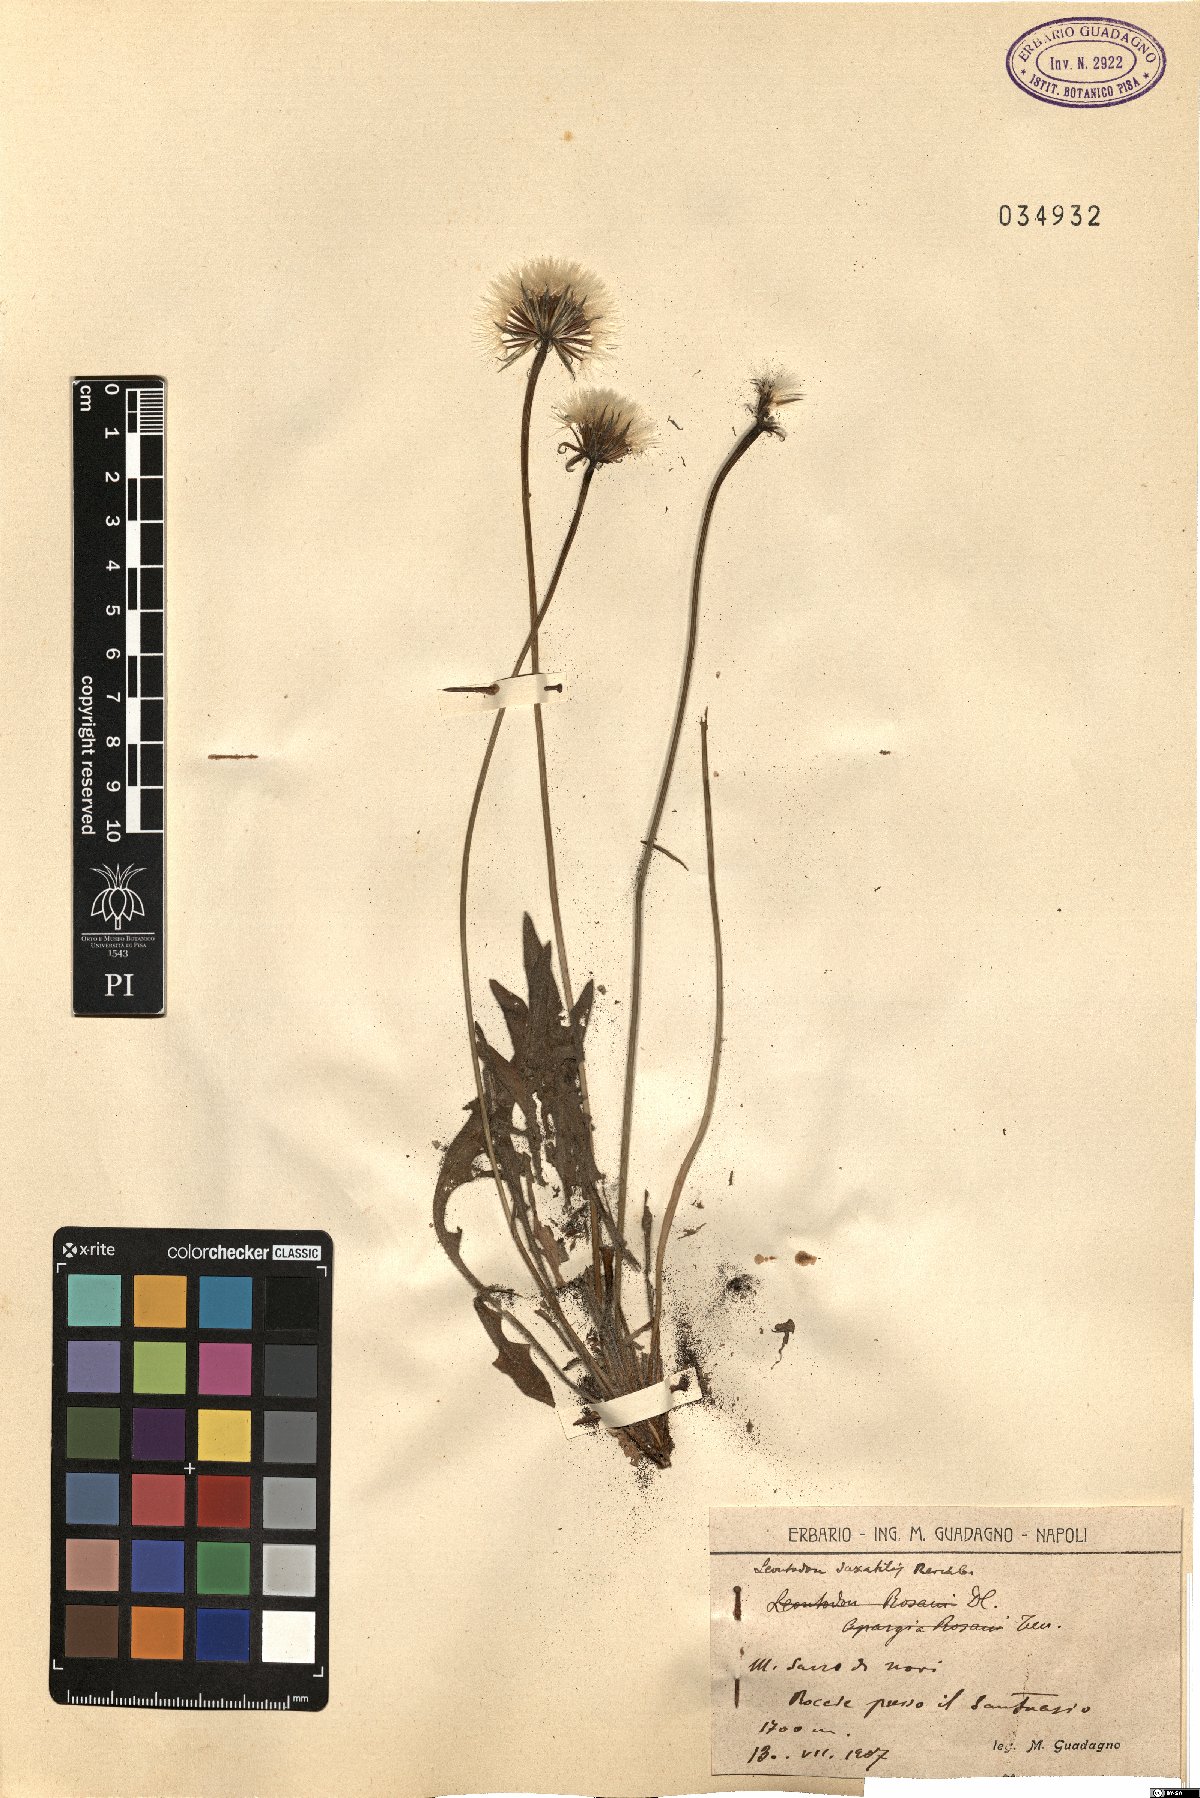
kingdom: Plantae
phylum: Tracheophyta
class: Magnoliopsida
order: Asterales
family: Asteraceae
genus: Thrincia
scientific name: Thrincia saxatilis
